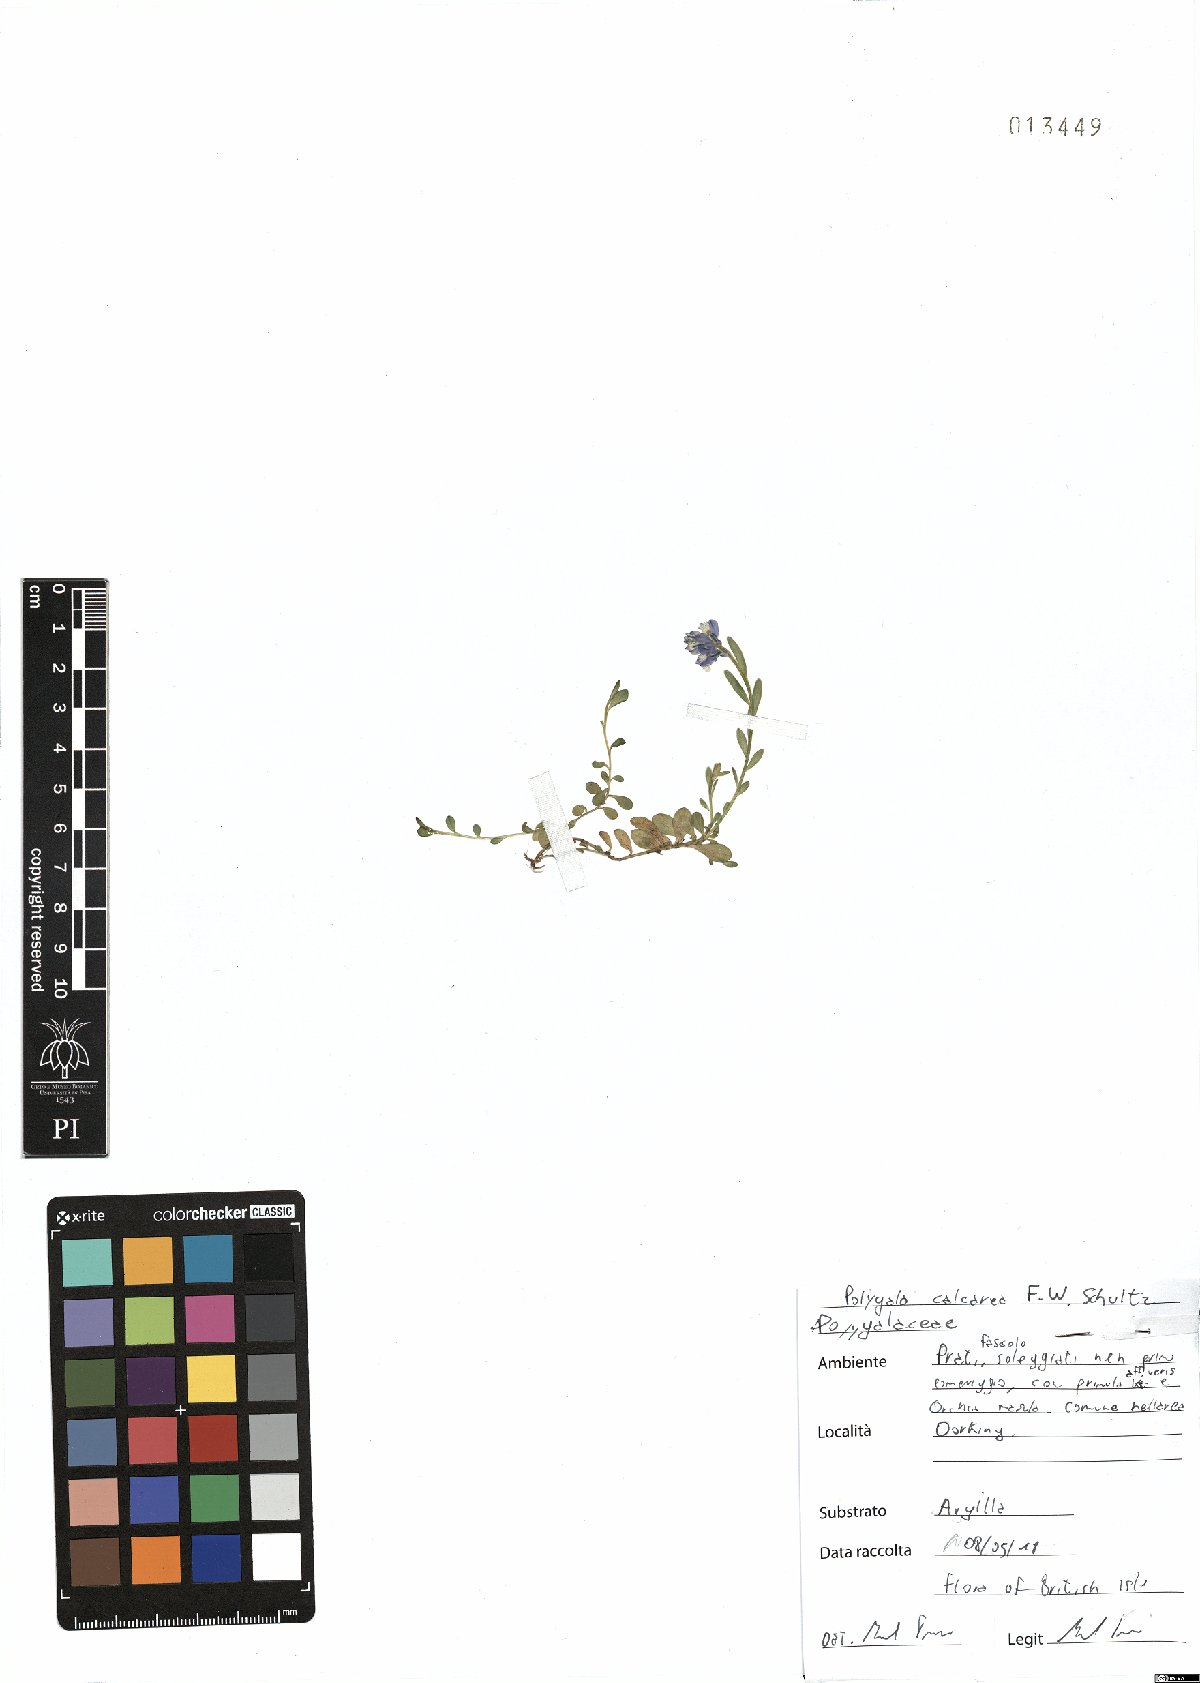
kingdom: Plantae
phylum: Tracheophyta
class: Magnoliopsida
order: Fabales
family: Polygalaceae
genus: Polygala
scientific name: Polygala calcarea
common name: Chalk milkwort
